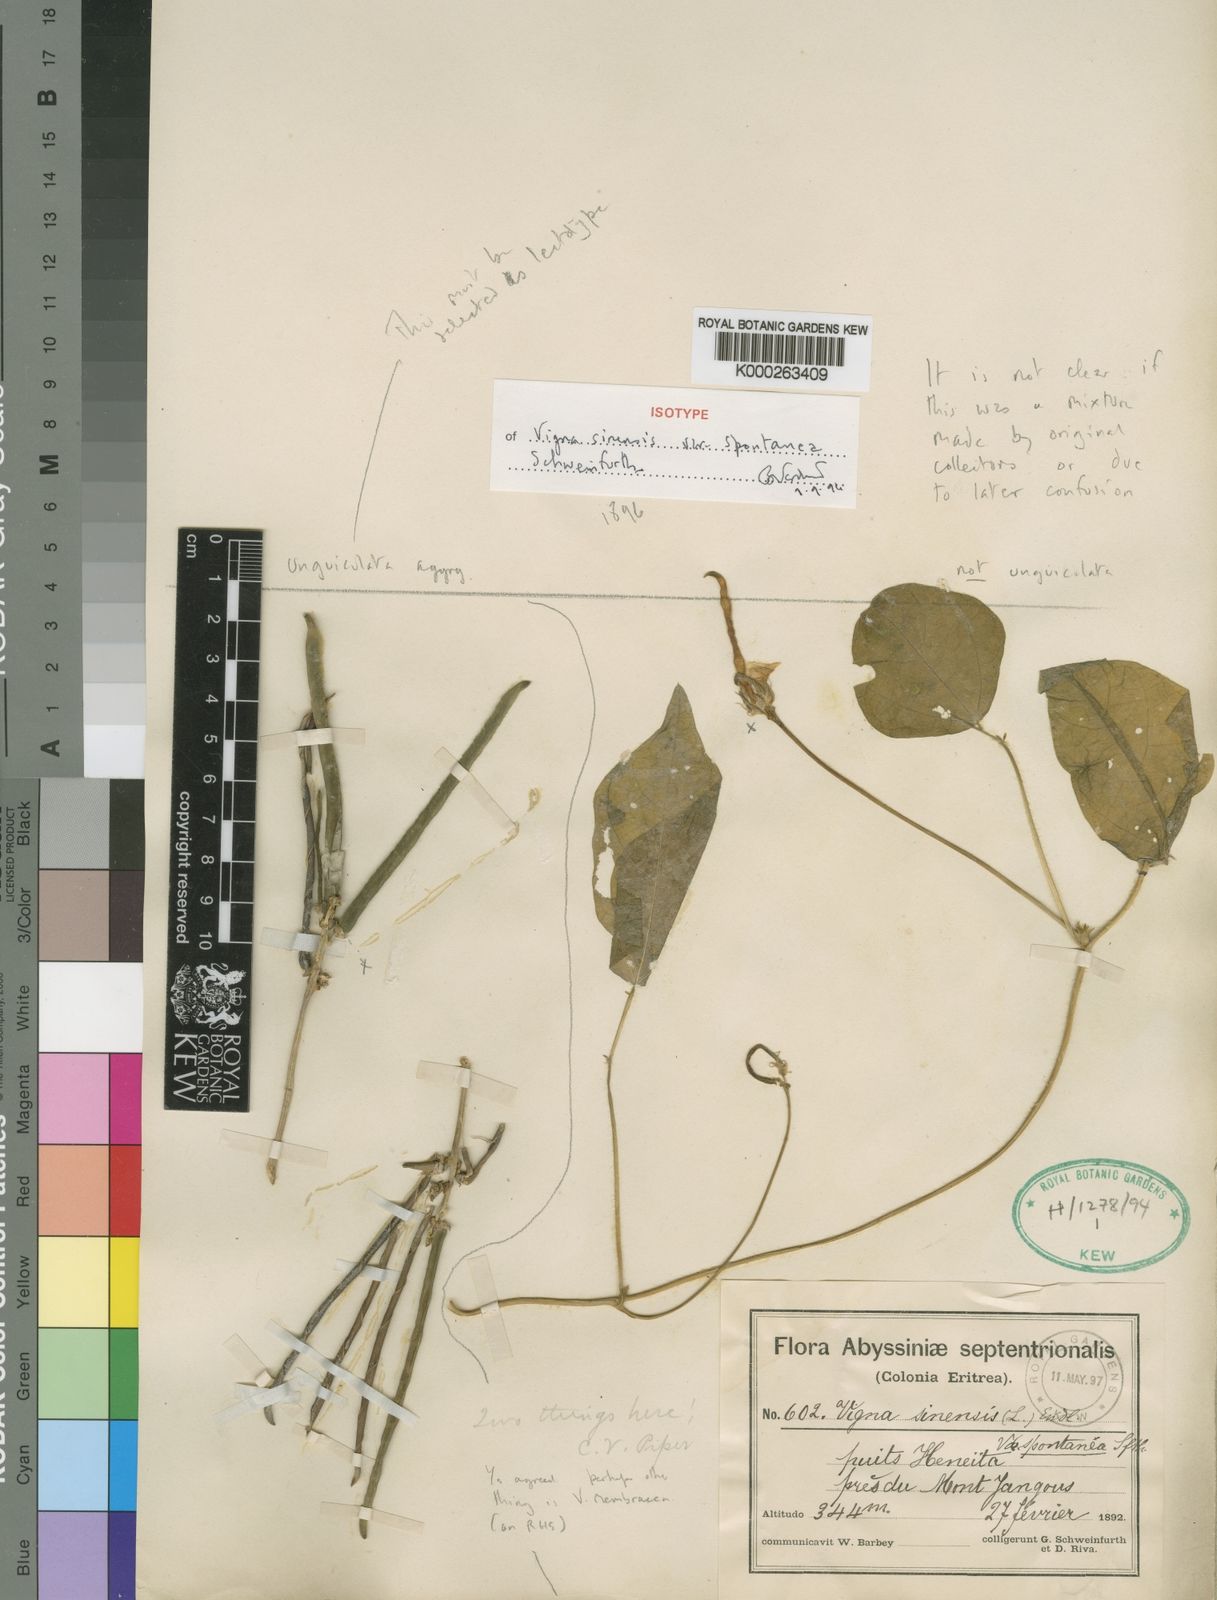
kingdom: Plantae
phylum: Tracheophyta
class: Magnoliopsida
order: Fabales
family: Fabaceae
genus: Vigna
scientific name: Vigna unguiculata
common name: Cowpea
